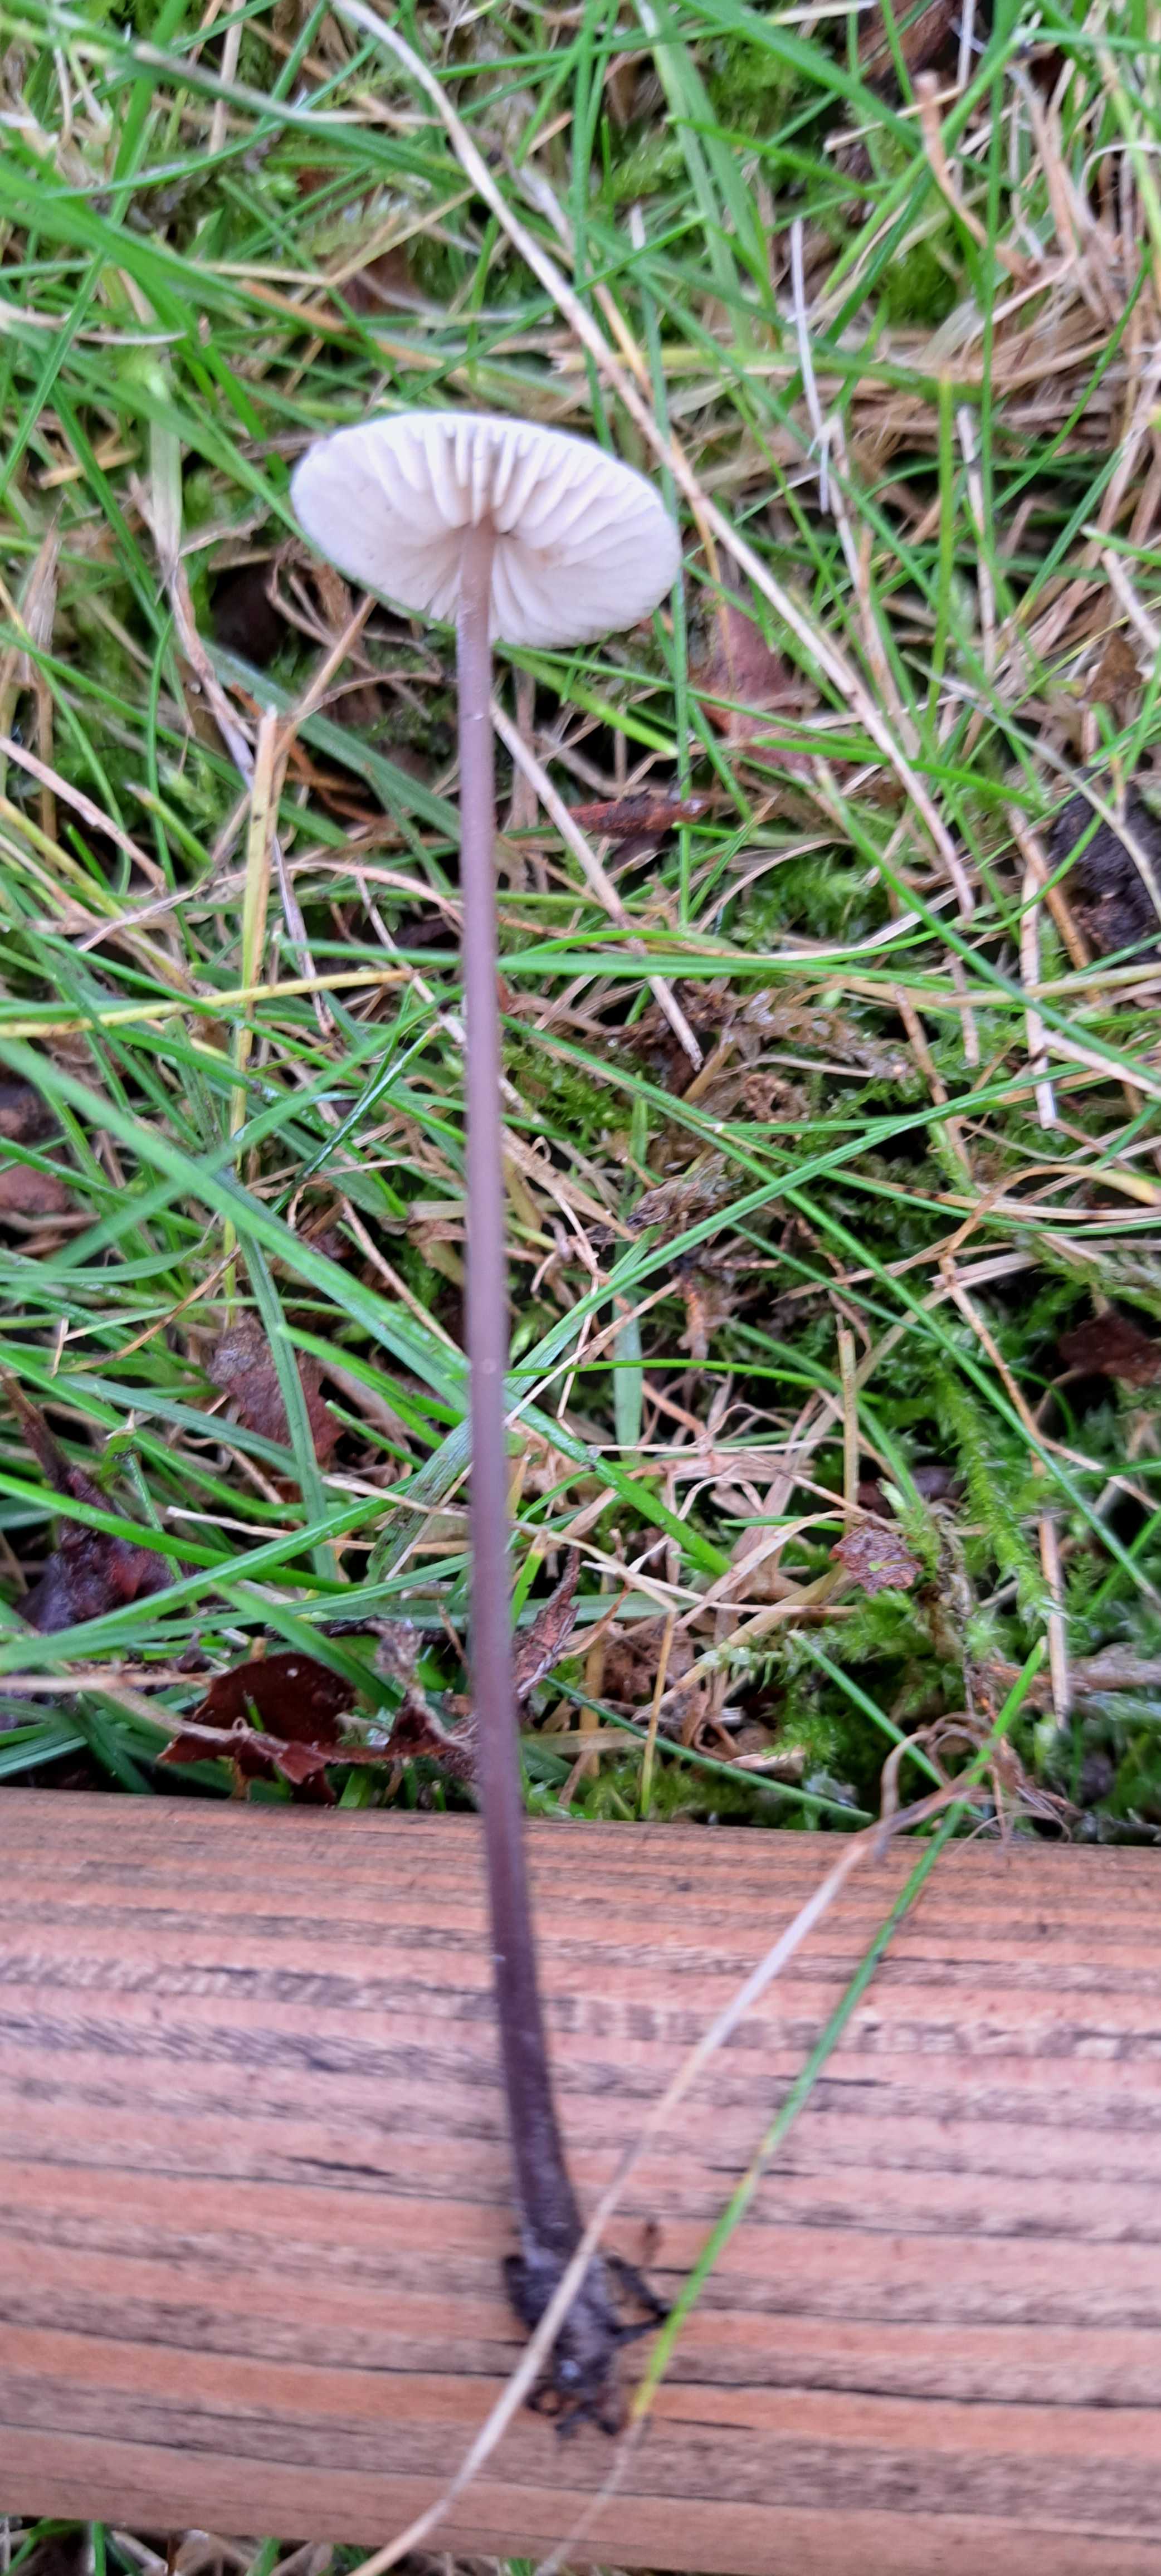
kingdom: Fungi
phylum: Basidiomycota
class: Agaricomycetes
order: Agaricales
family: Omphalotaceae
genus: Mycetinis
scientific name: Mycetinis alliaceus
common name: stor løghat
